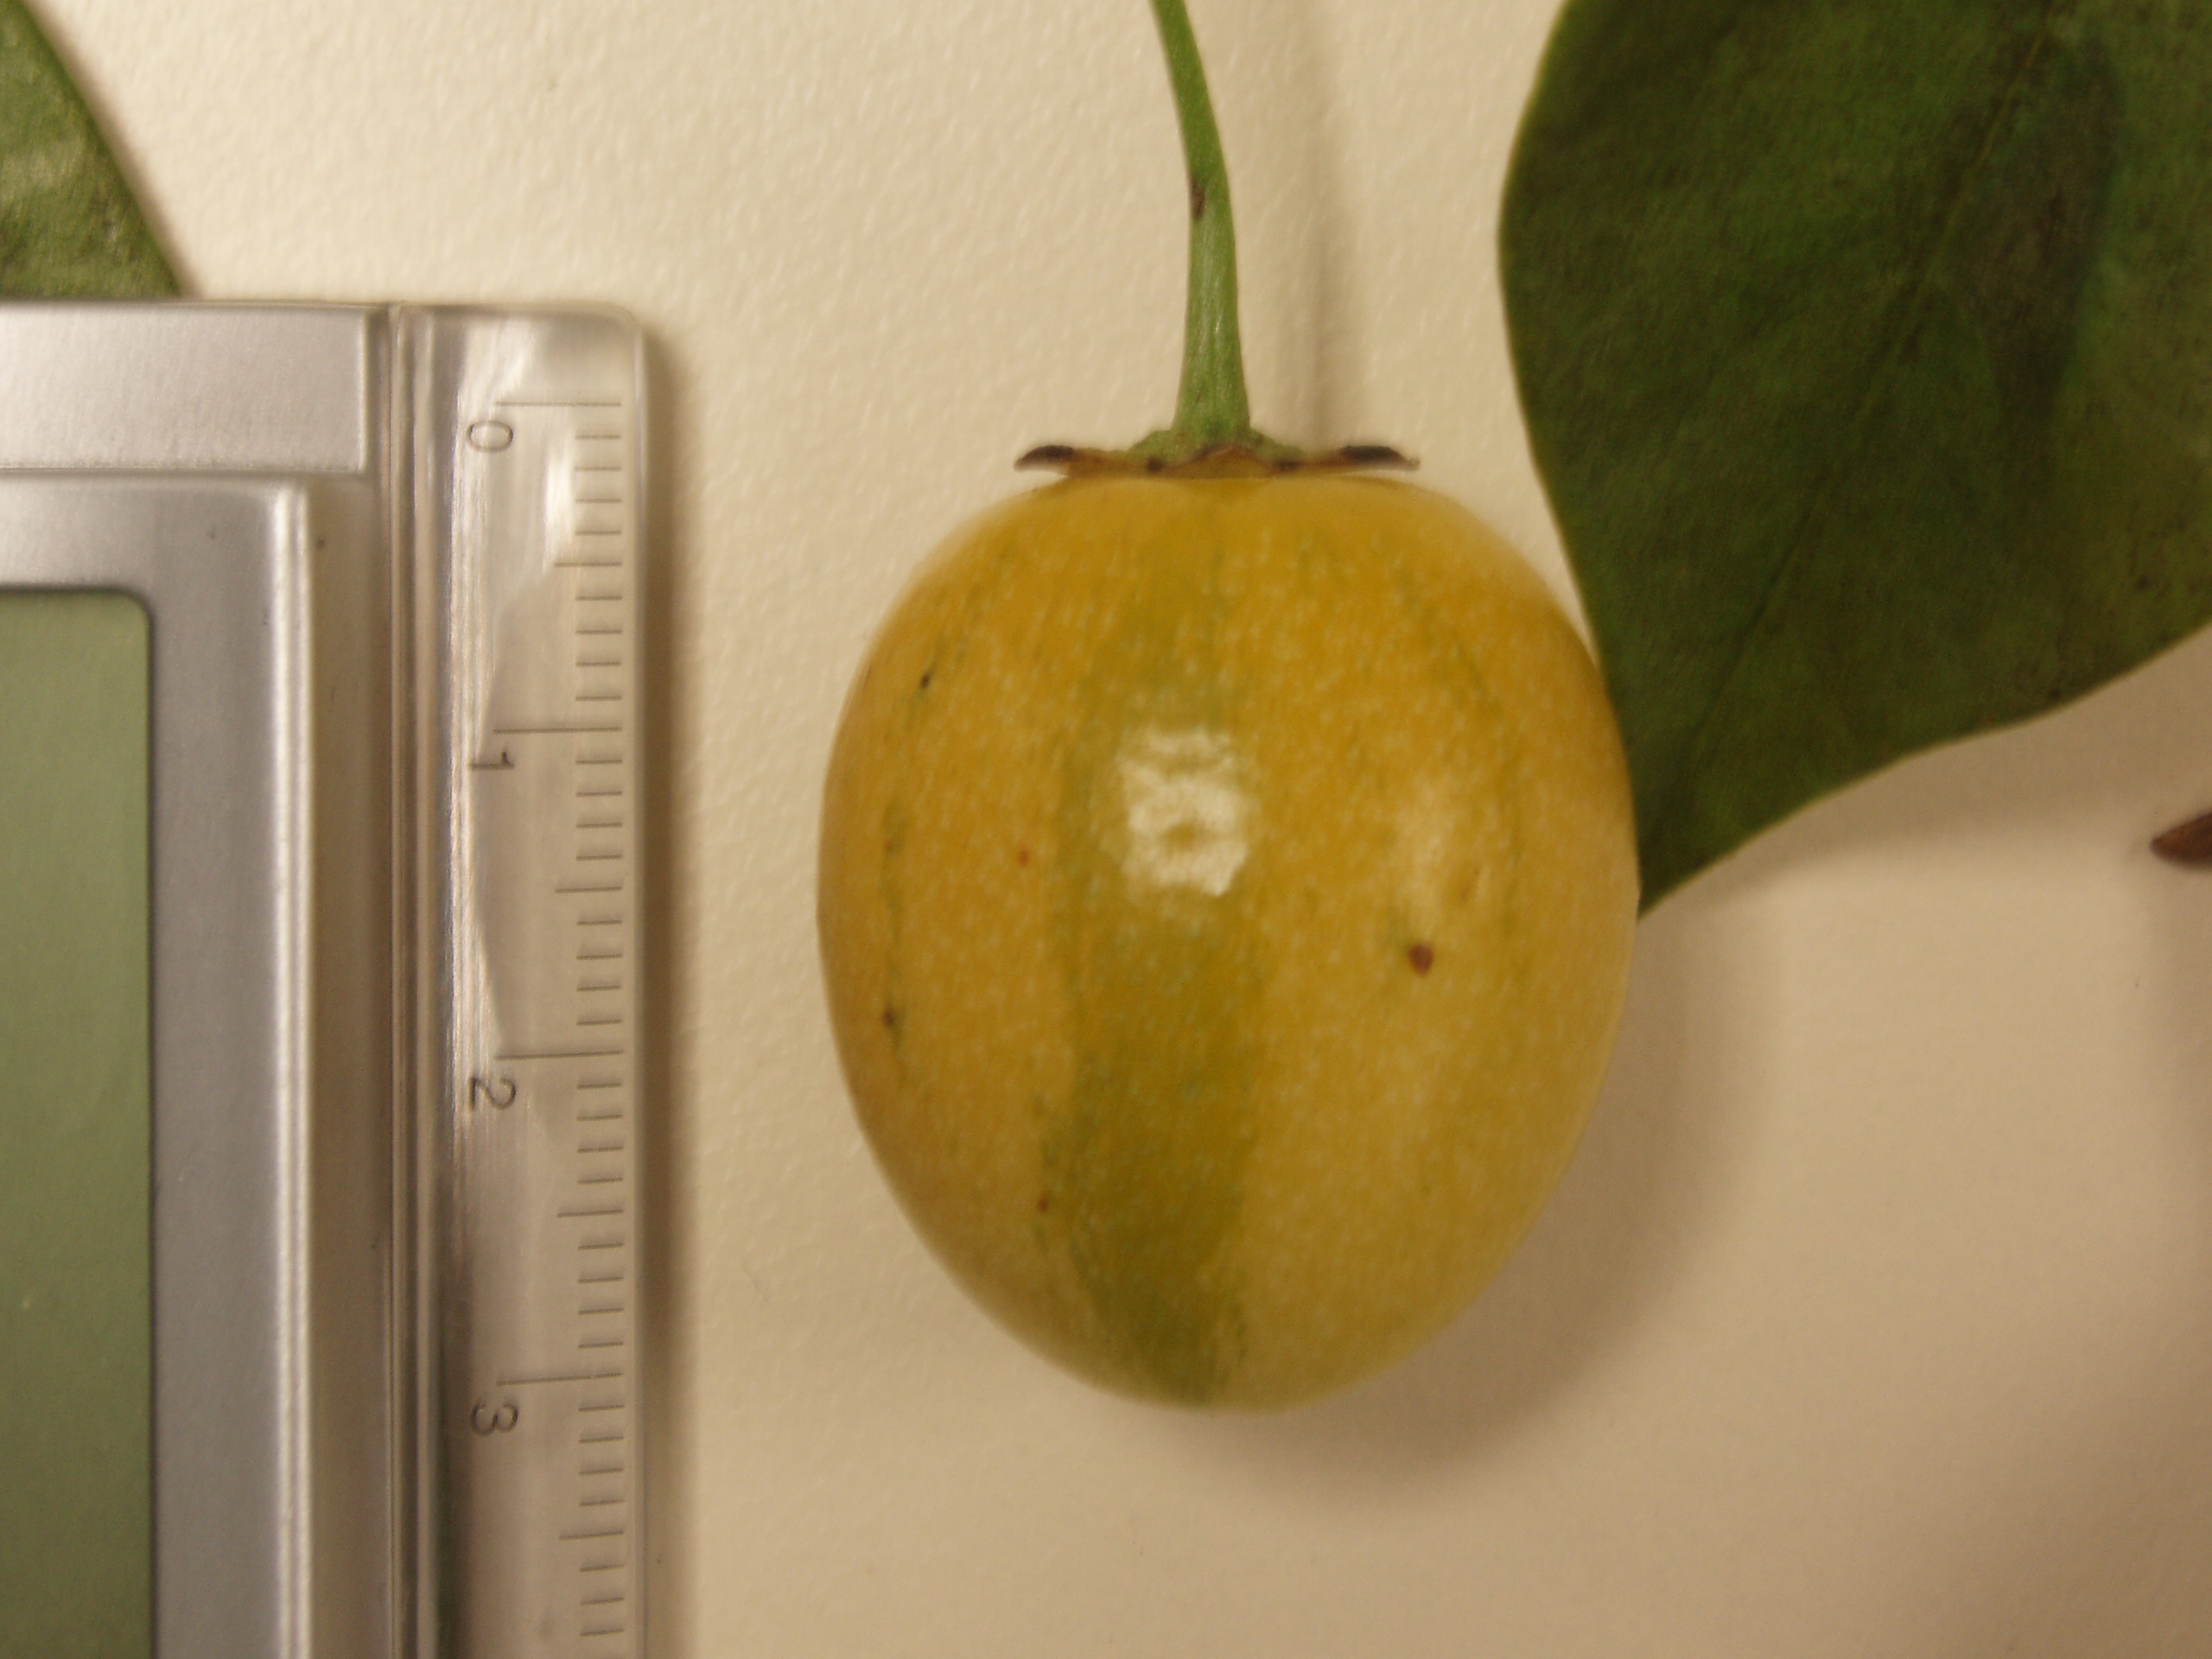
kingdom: Plantae
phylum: Tracheophyta
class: Magnoliopsida
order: Solanales
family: Solanaceae
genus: Solanum
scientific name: Solanum diploconos
